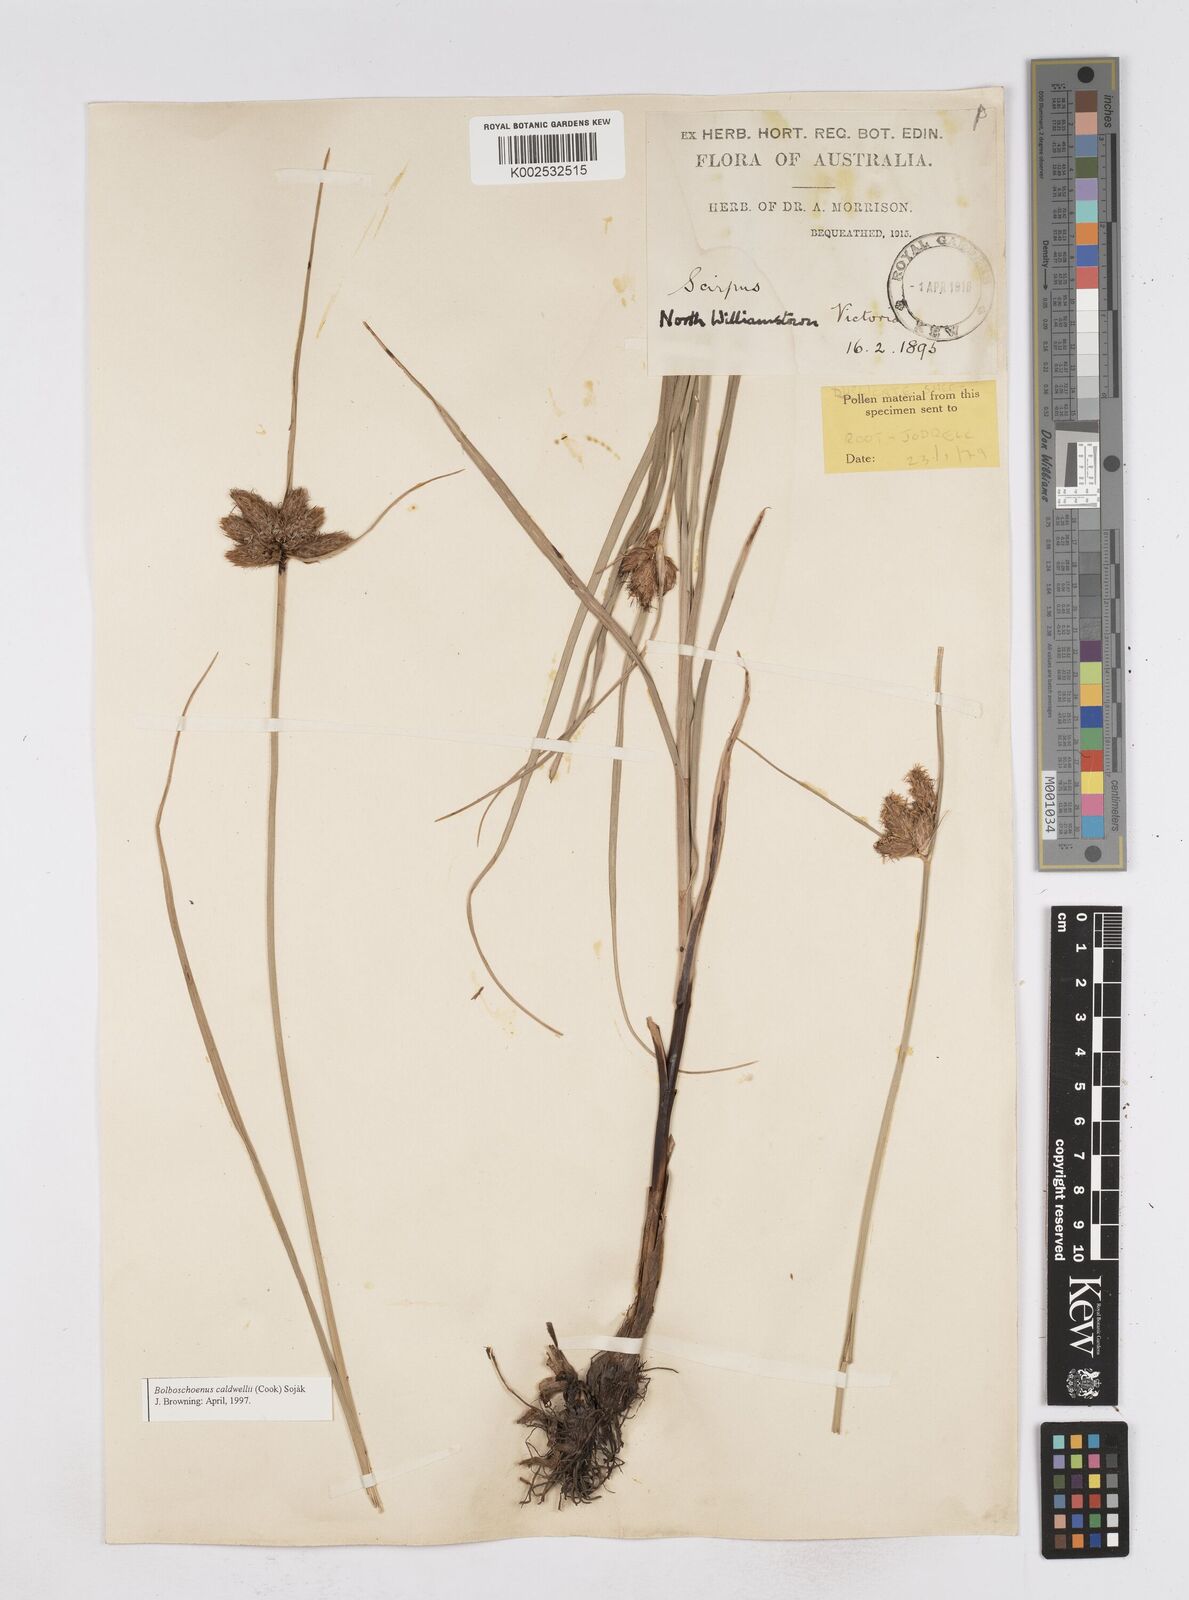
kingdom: Plantae
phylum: Tracheophyta
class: Liliopsida
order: Poales
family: Cyperaceae
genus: Bolboschoenus
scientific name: Bolboschoenus maritimus
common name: Sea club-rush
